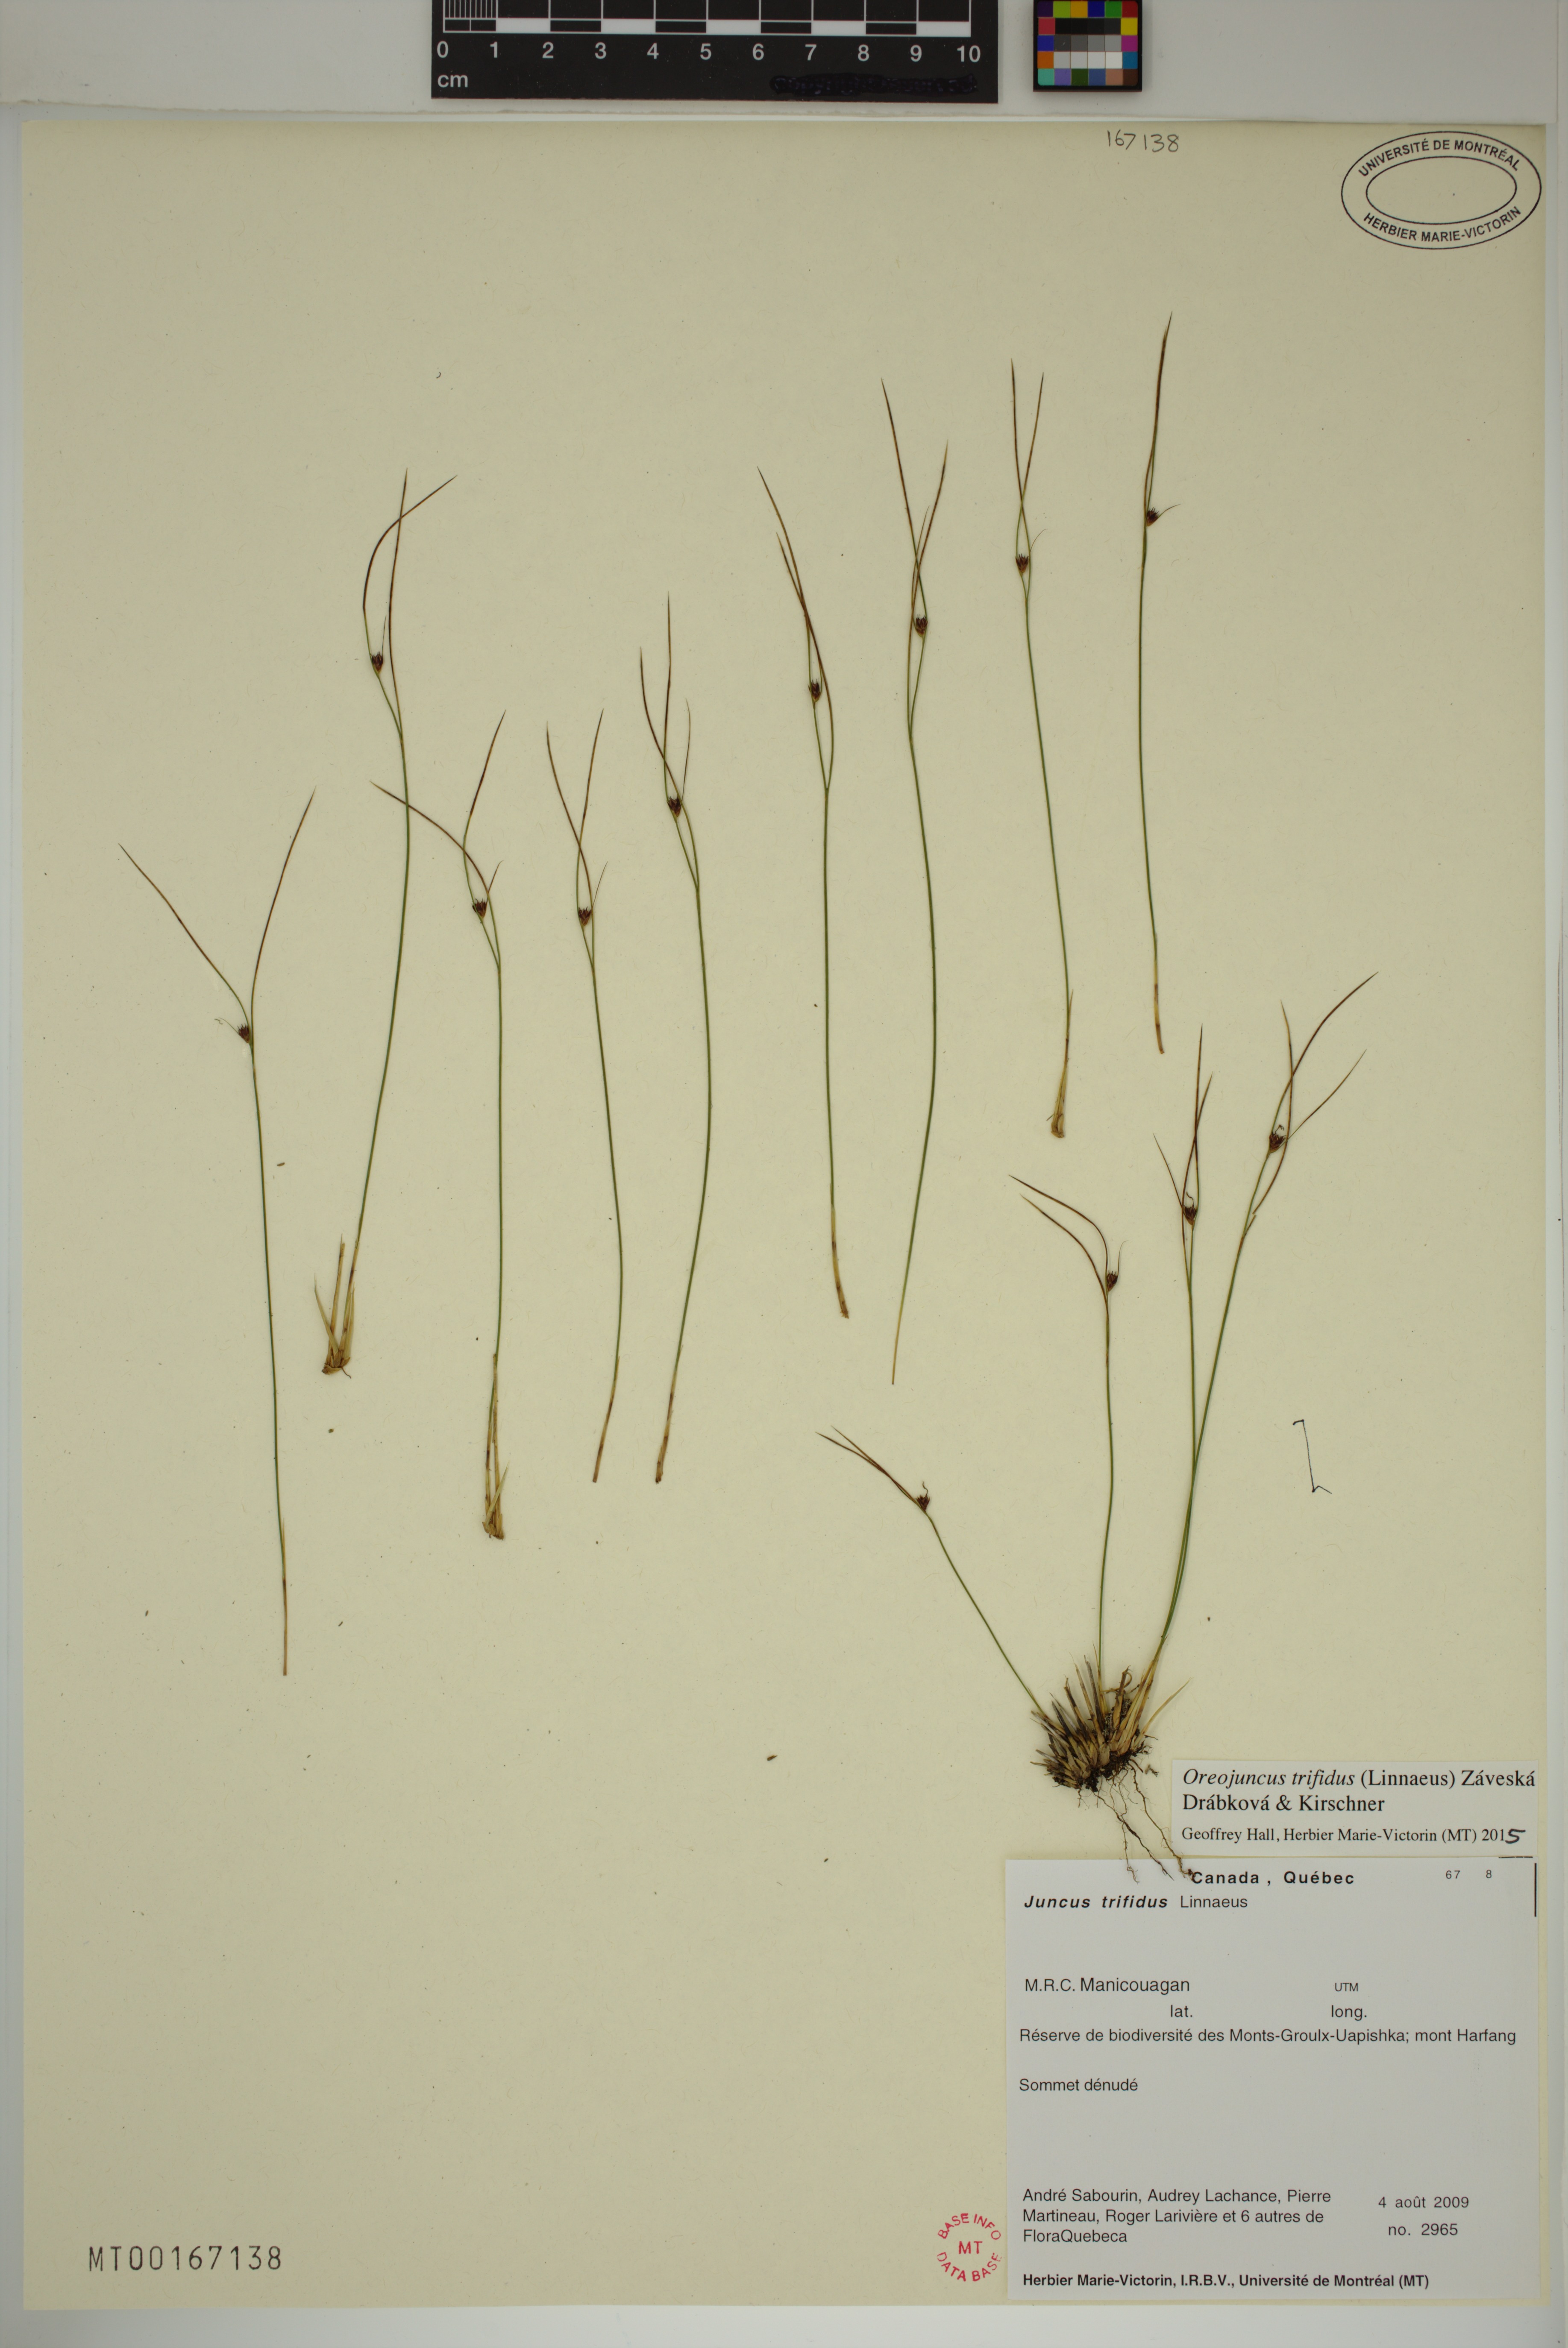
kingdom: Plantae
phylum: Tracheophyta
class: Liliopsida
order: Poales
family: Juncaceae
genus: Oreojuncus
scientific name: Oreojuncus trifidus
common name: Highland rush
